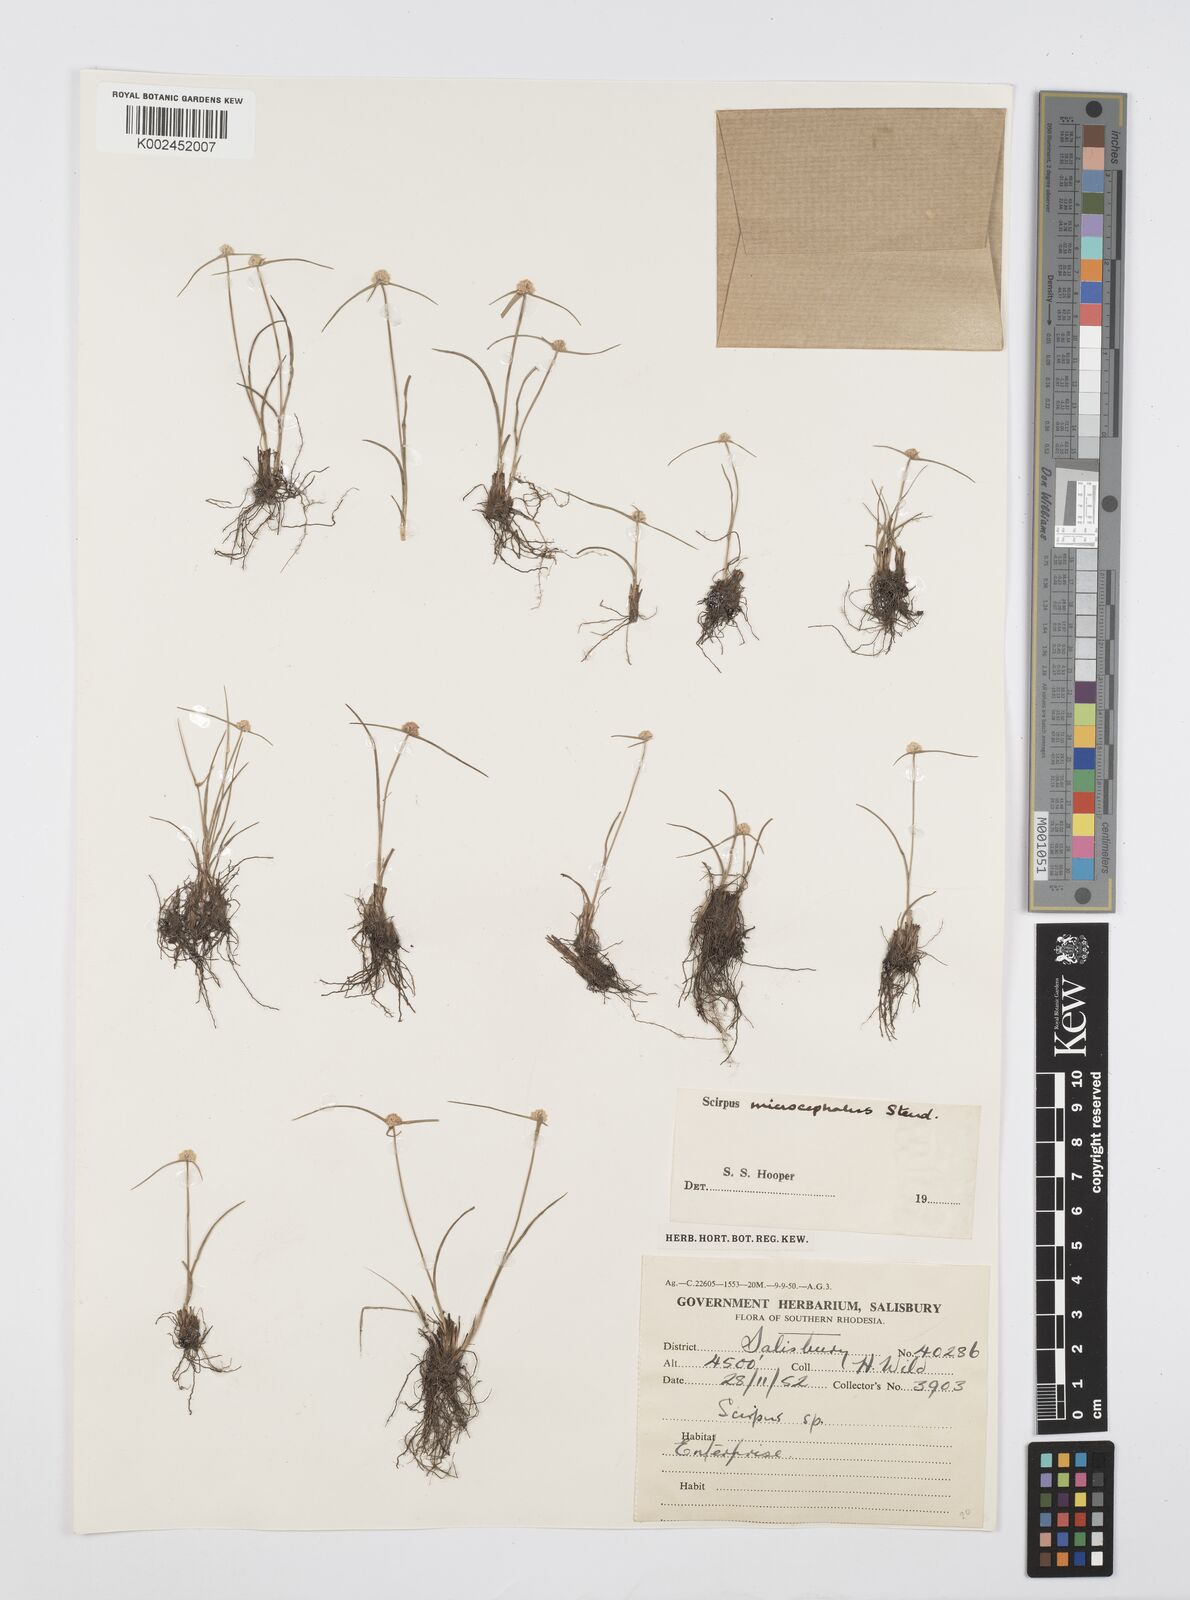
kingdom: Plantae
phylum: Tracheophyta
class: Liliopsida
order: Poales
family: Cyperaceae
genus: Cyperus
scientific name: Cyperus conglobatus
